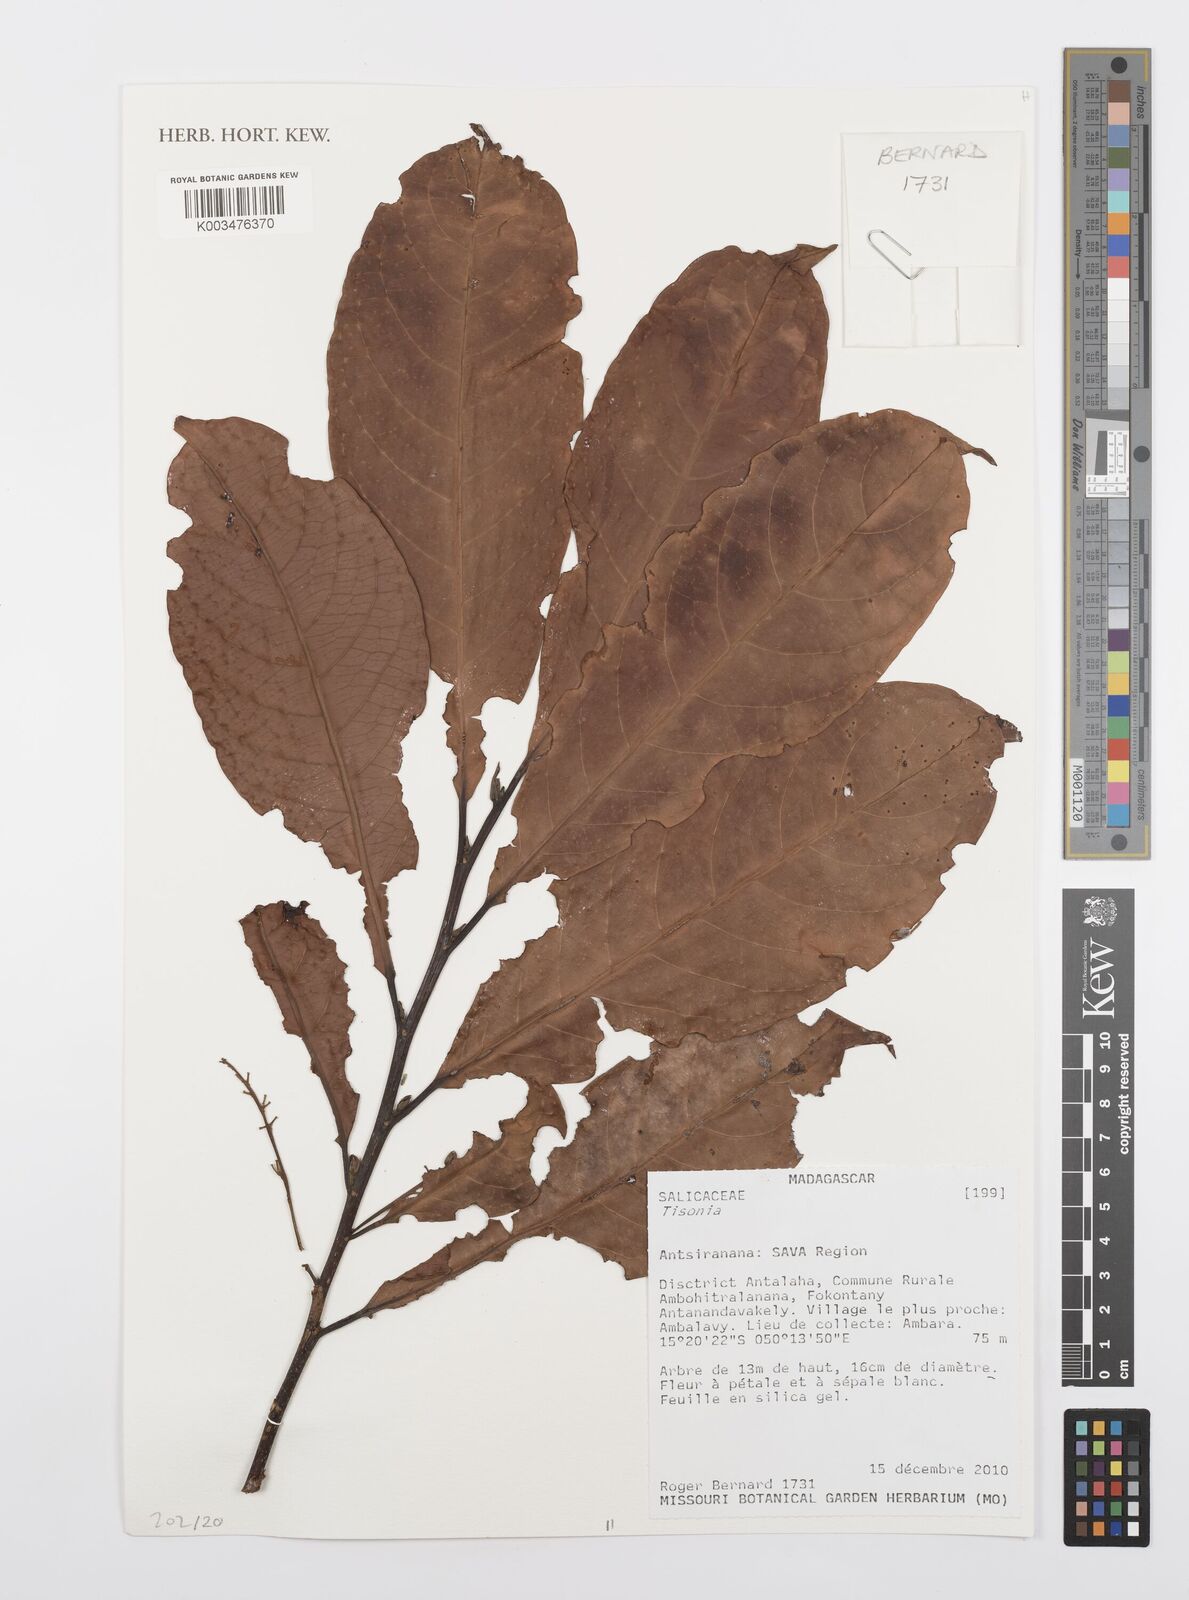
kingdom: Plantae
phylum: Tracheophyta
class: Magnoliopsida
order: Malpighiales
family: Salicaceae
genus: Tisonia
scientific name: Tisonia
